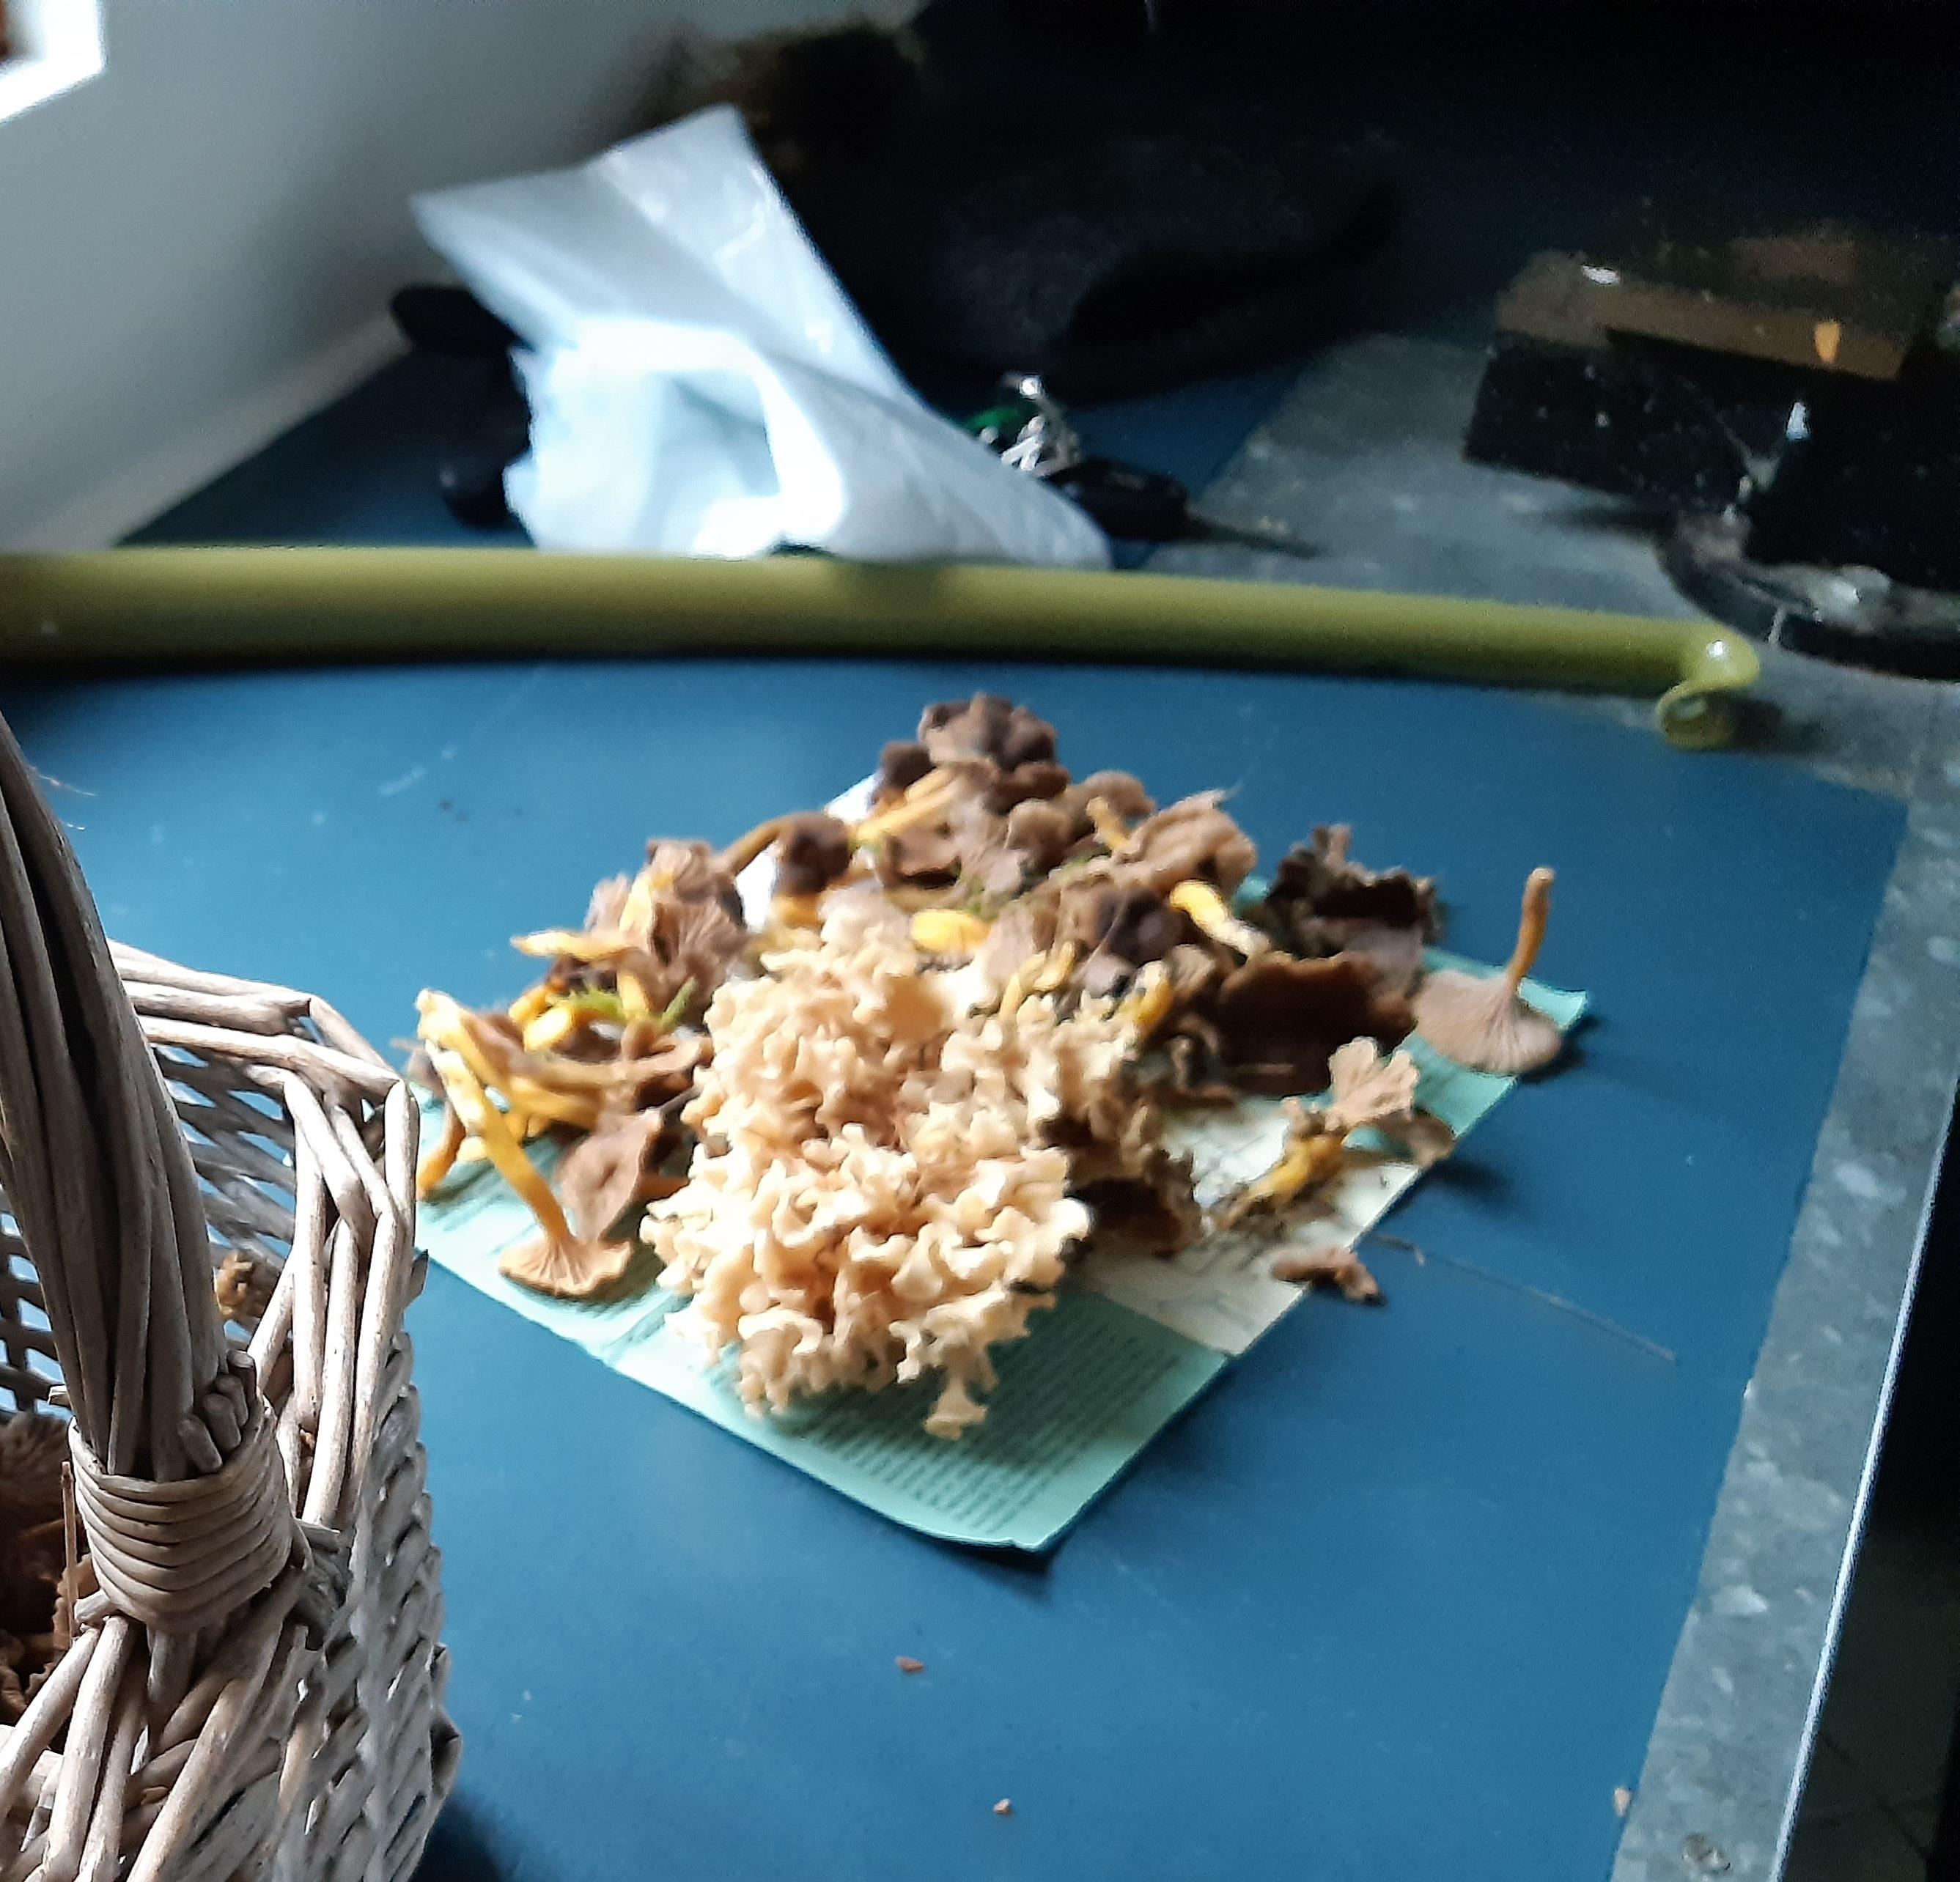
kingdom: Fungi
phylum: Basidiomycota
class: Agaricomycetes
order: Polyporales
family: Sparassidaceae
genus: Sparassis
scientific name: Sparassis crispa
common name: kruset blomkålssvamp
